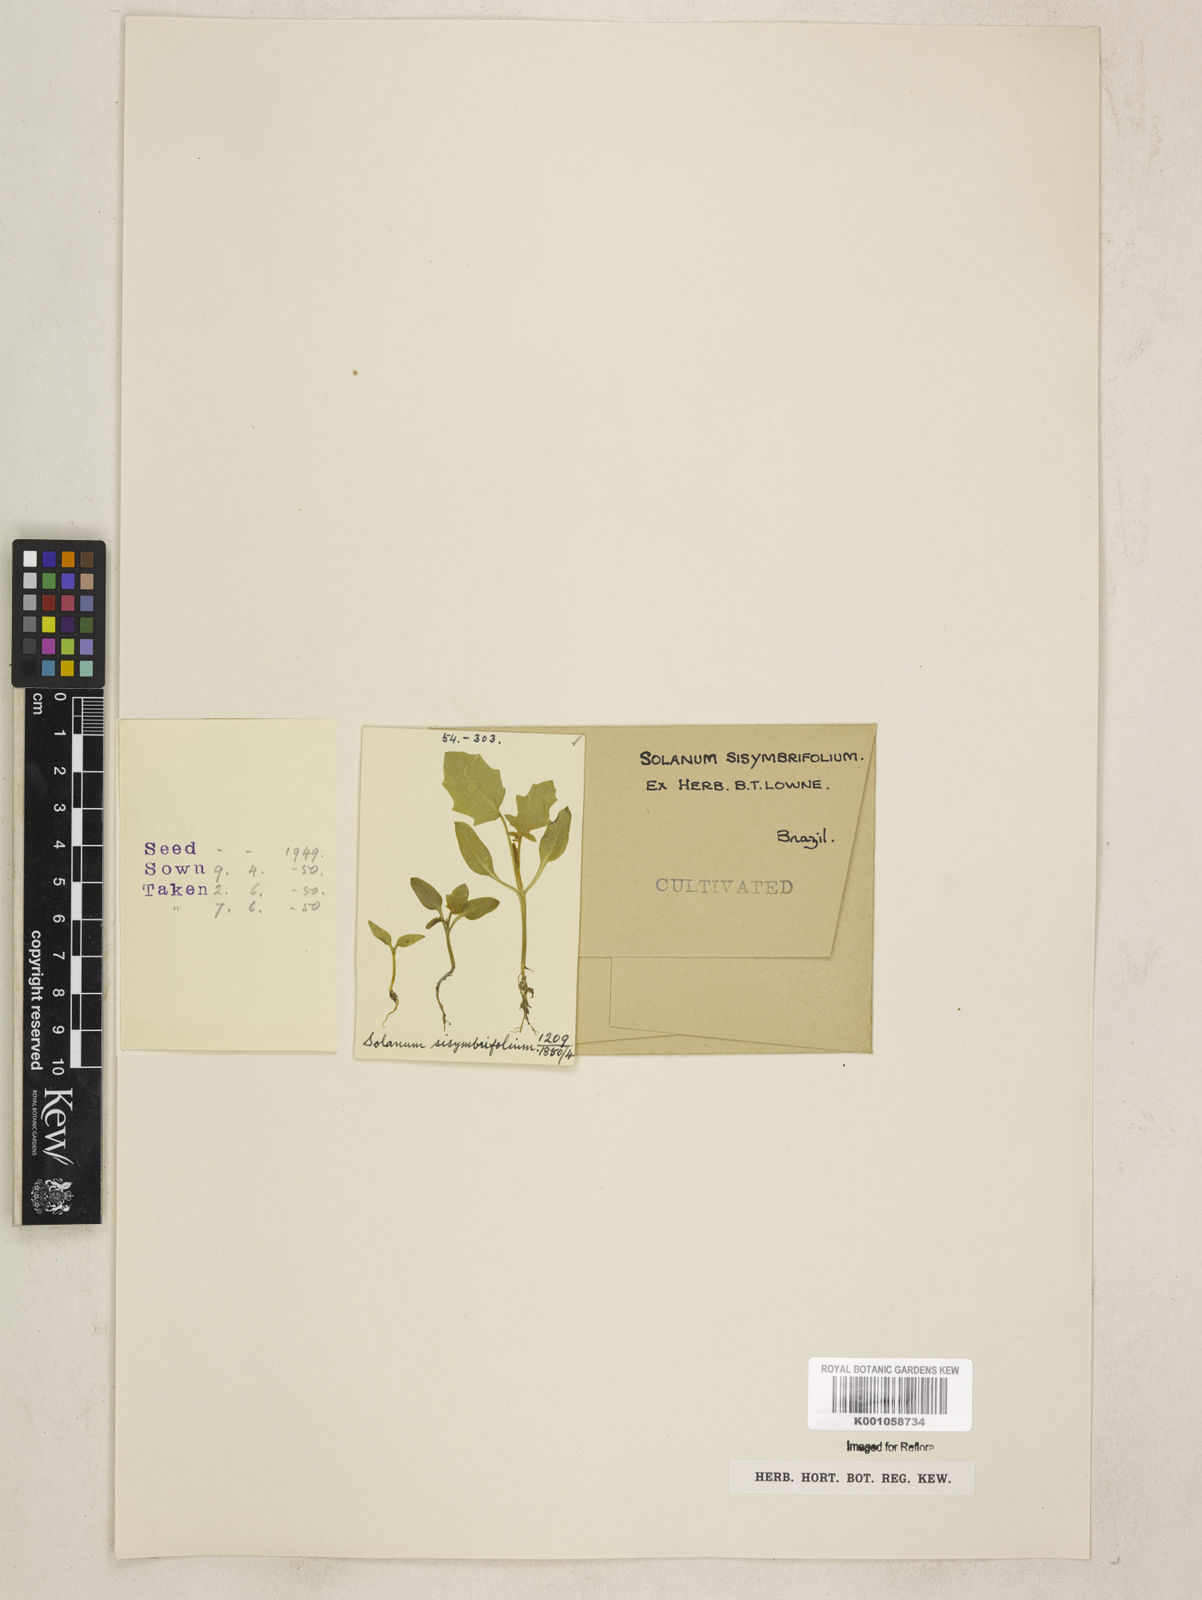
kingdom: Plantae
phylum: Tracheophyta
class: Magnoliopsida
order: Solanales
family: Solanaceae
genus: Solanum
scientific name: Solanum sisymbriifolium
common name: Red buffalo-bur
